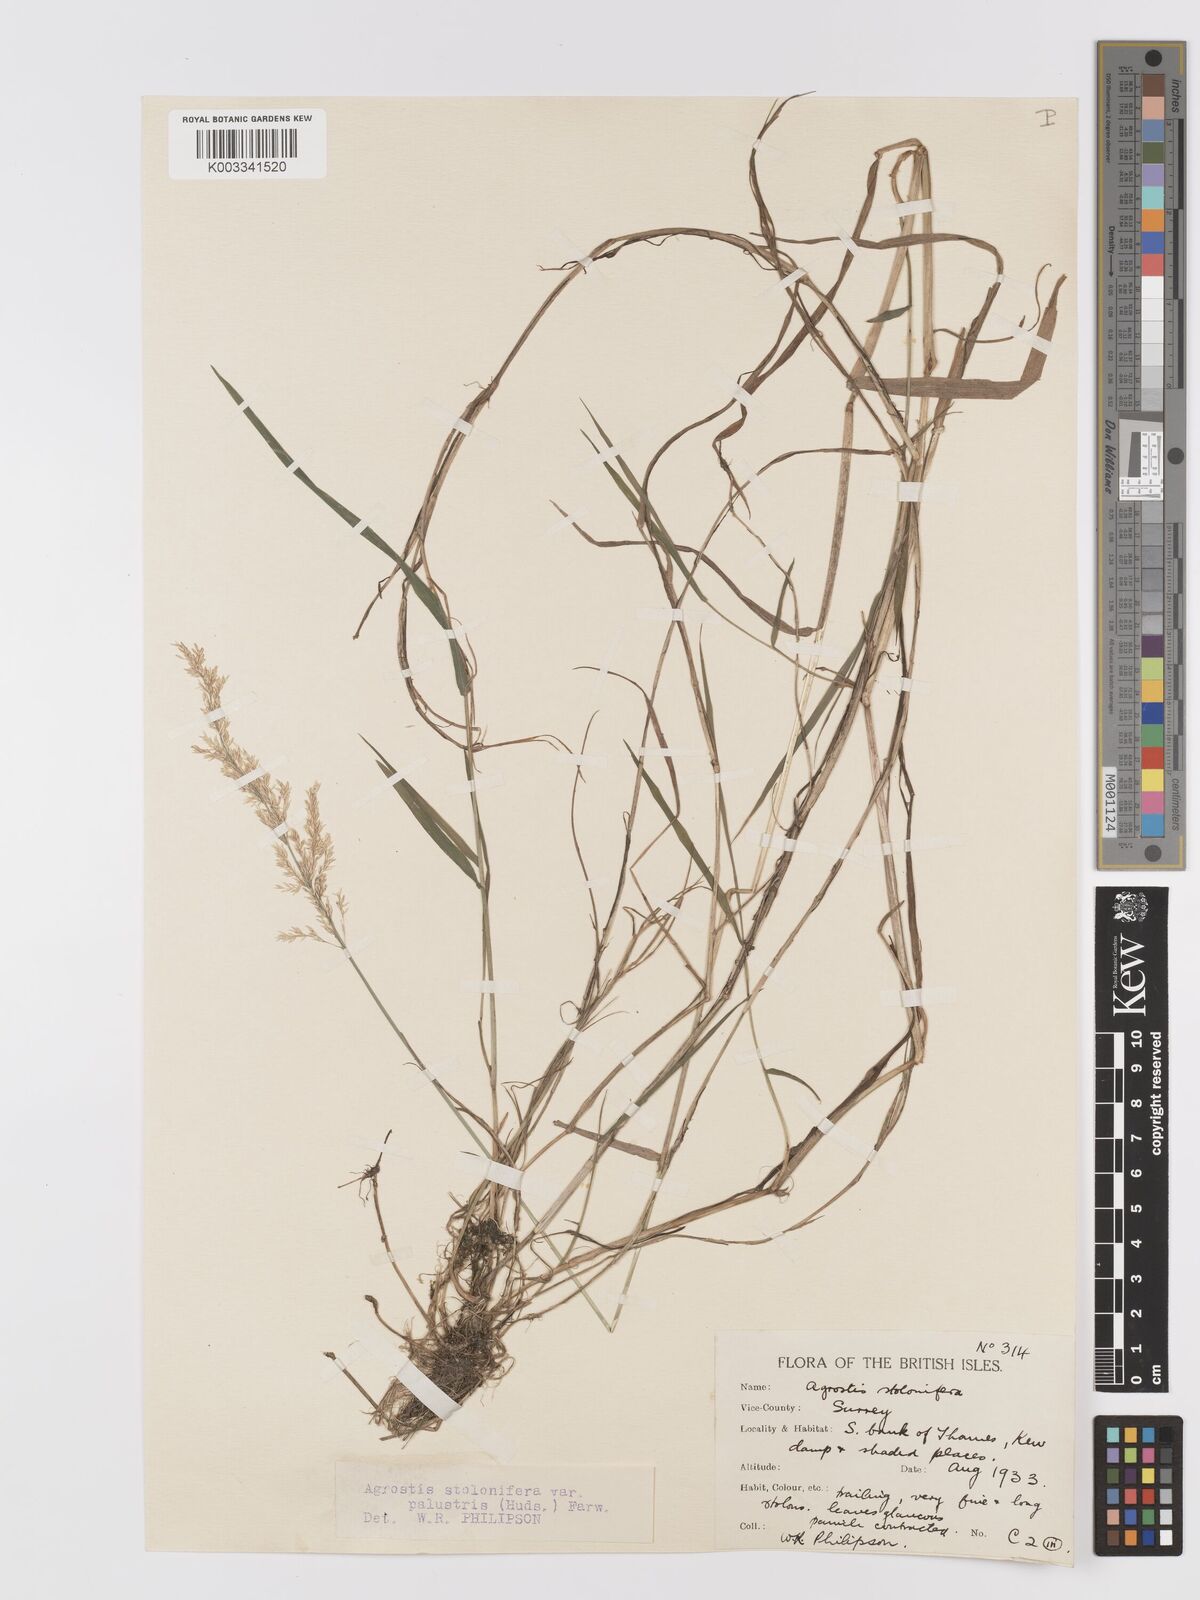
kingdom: Plantae
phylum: Tracheophyta
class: Liliopsida
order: Poales
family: Poaceae
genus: Agrostis
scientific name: Agrostis stolonifera
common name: Creeping bentgrass
